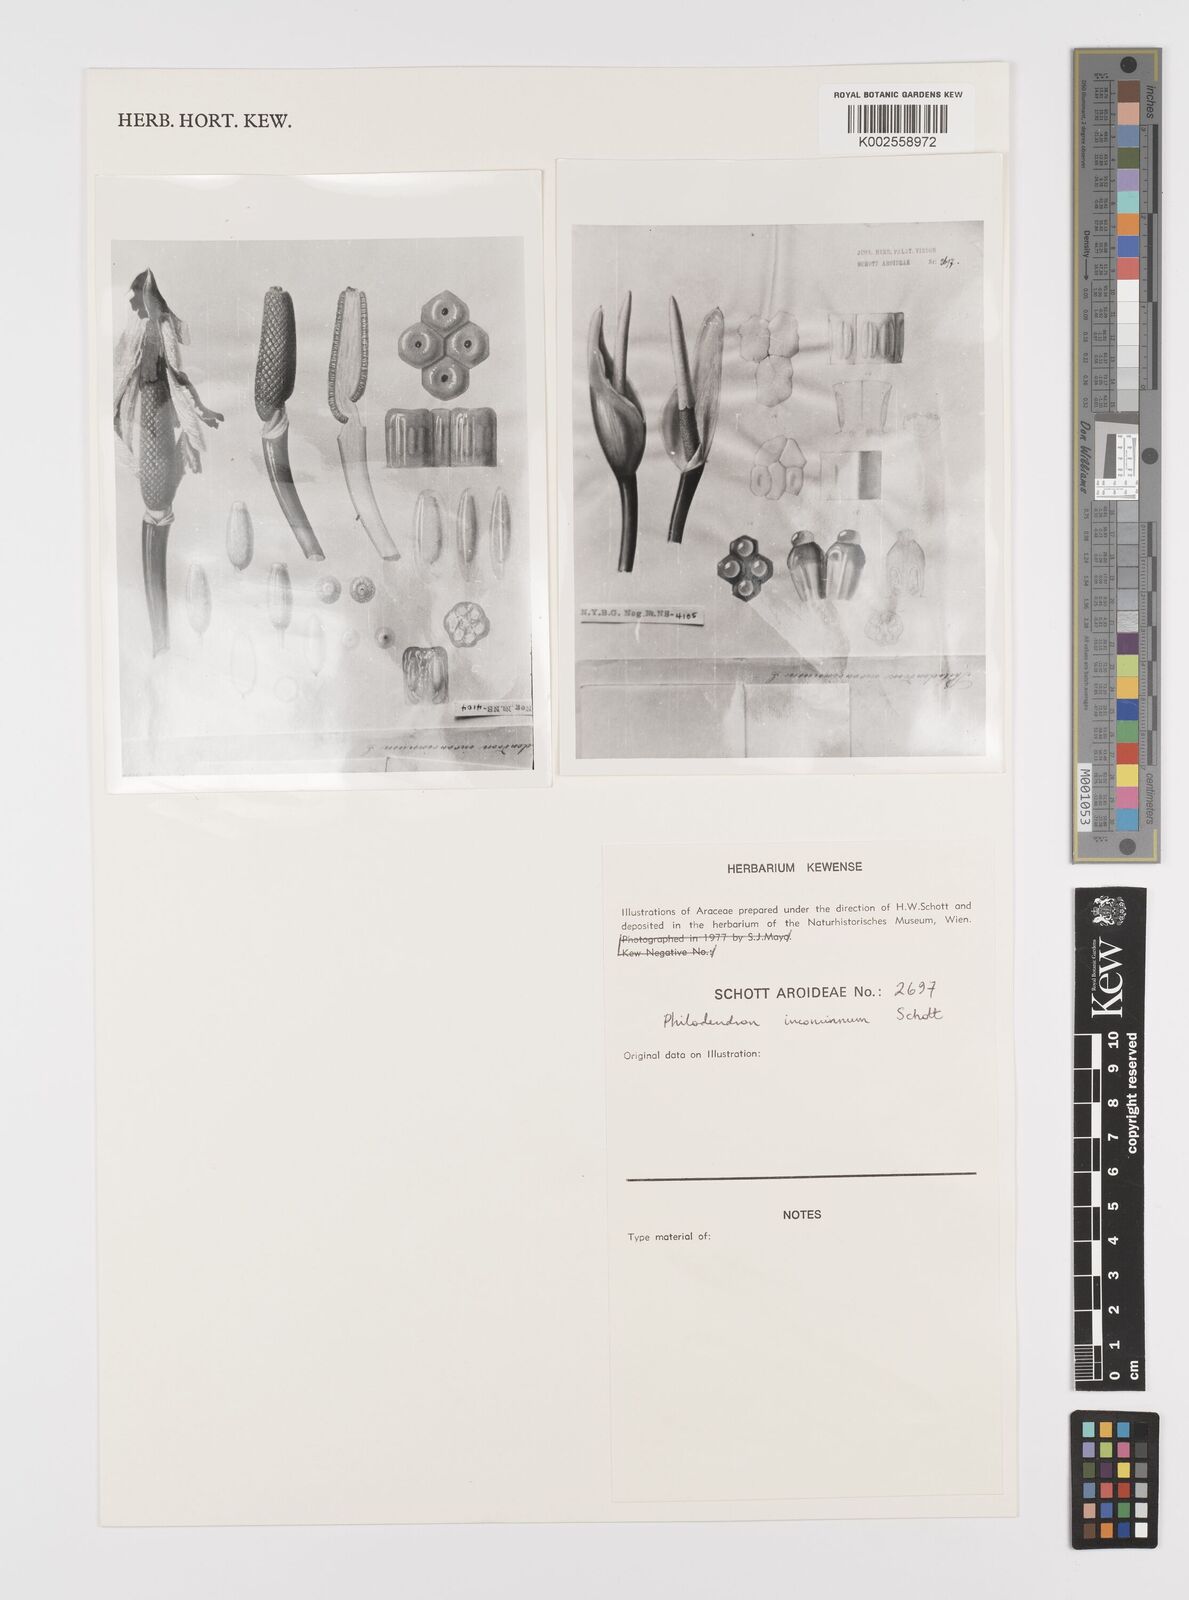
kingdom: Plantae
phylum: Tracheophyta
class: Liliopsida
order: Alismatales
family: Araceae
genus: Philodendron
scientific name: Philodendron inconcinnum
